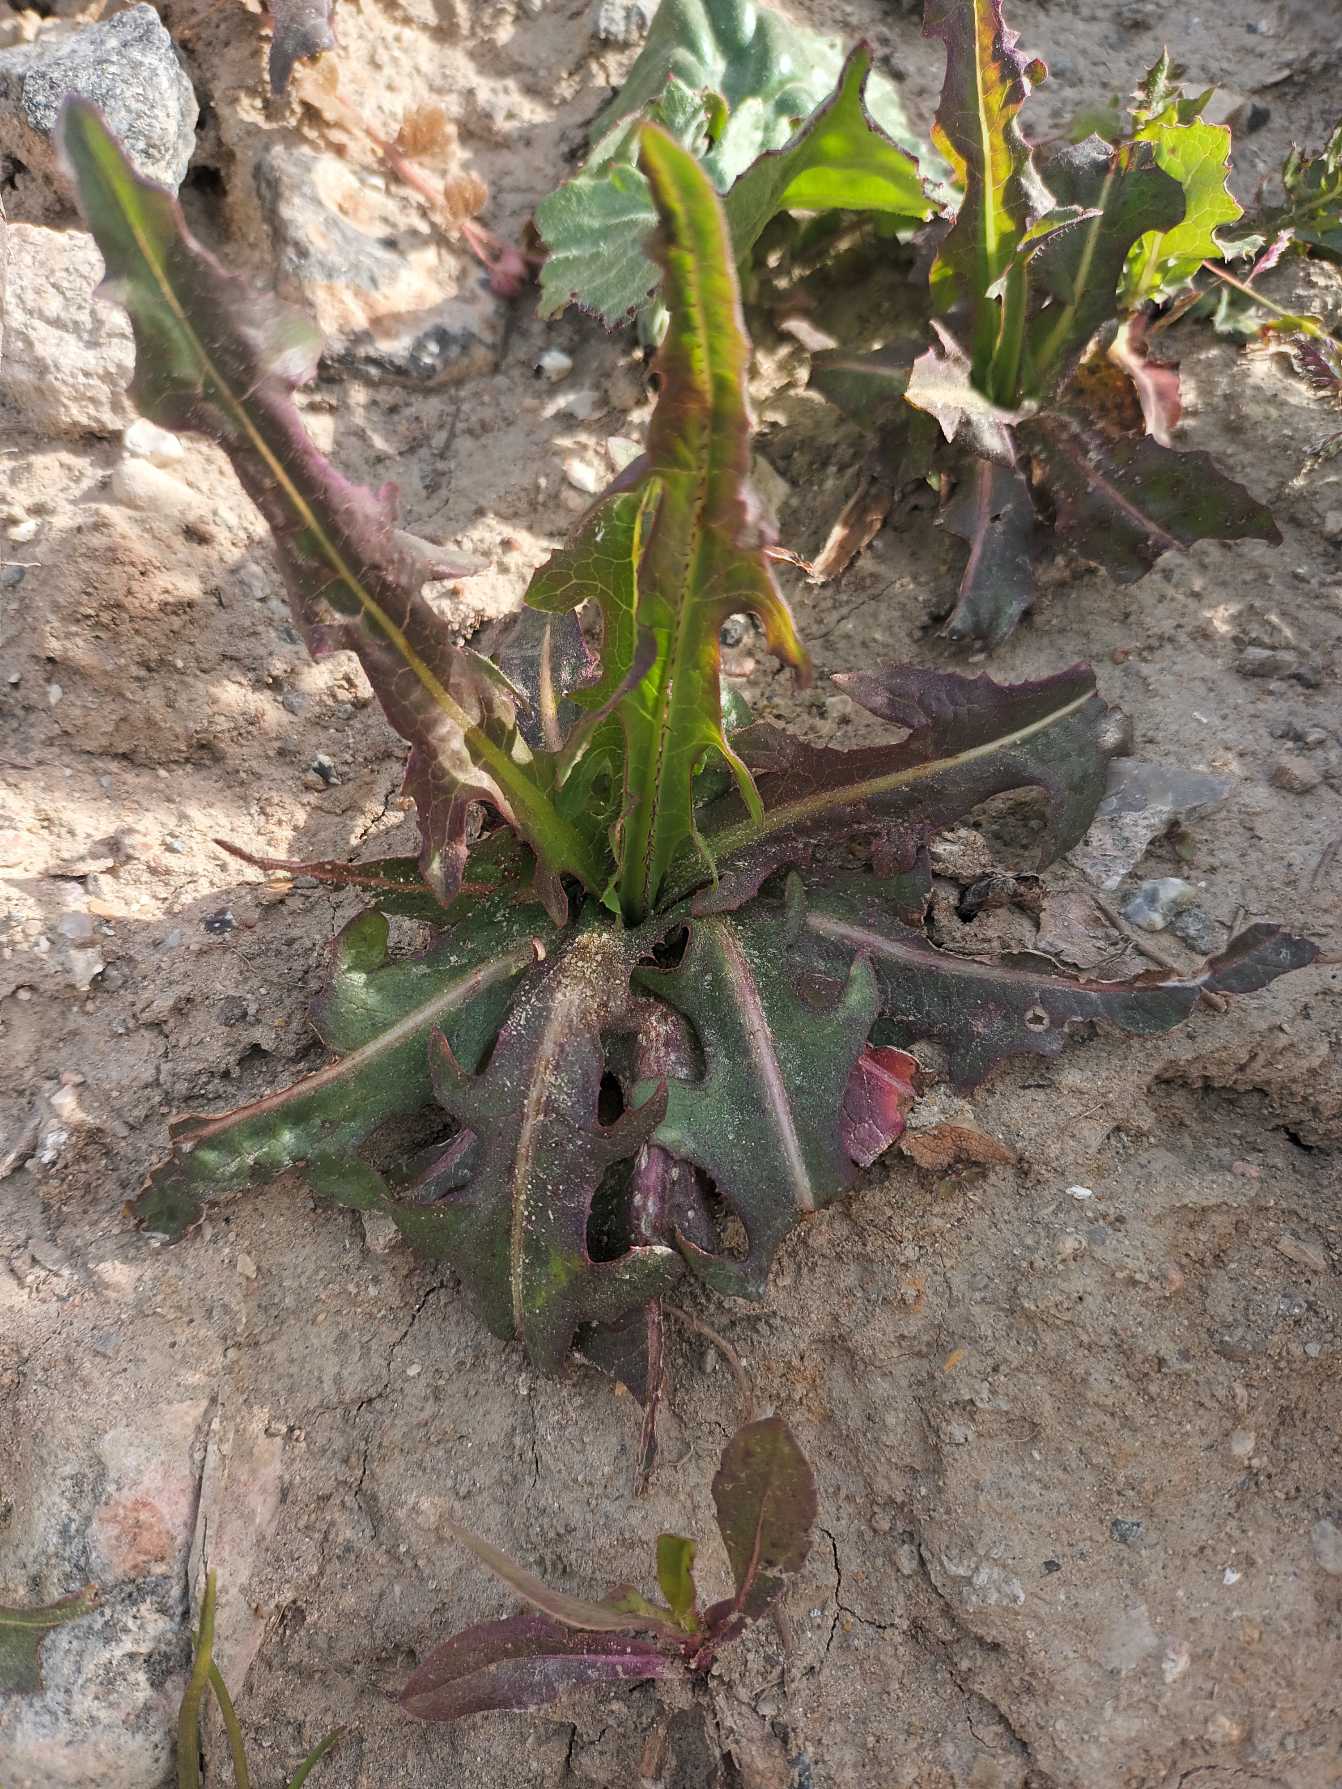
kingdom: Plantae
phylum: Tracheophyta
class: Magnoliopsida
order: Asterales
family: Asteraceae
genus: Lactuca
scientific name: Lactuca serriola
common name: Tornet salat
